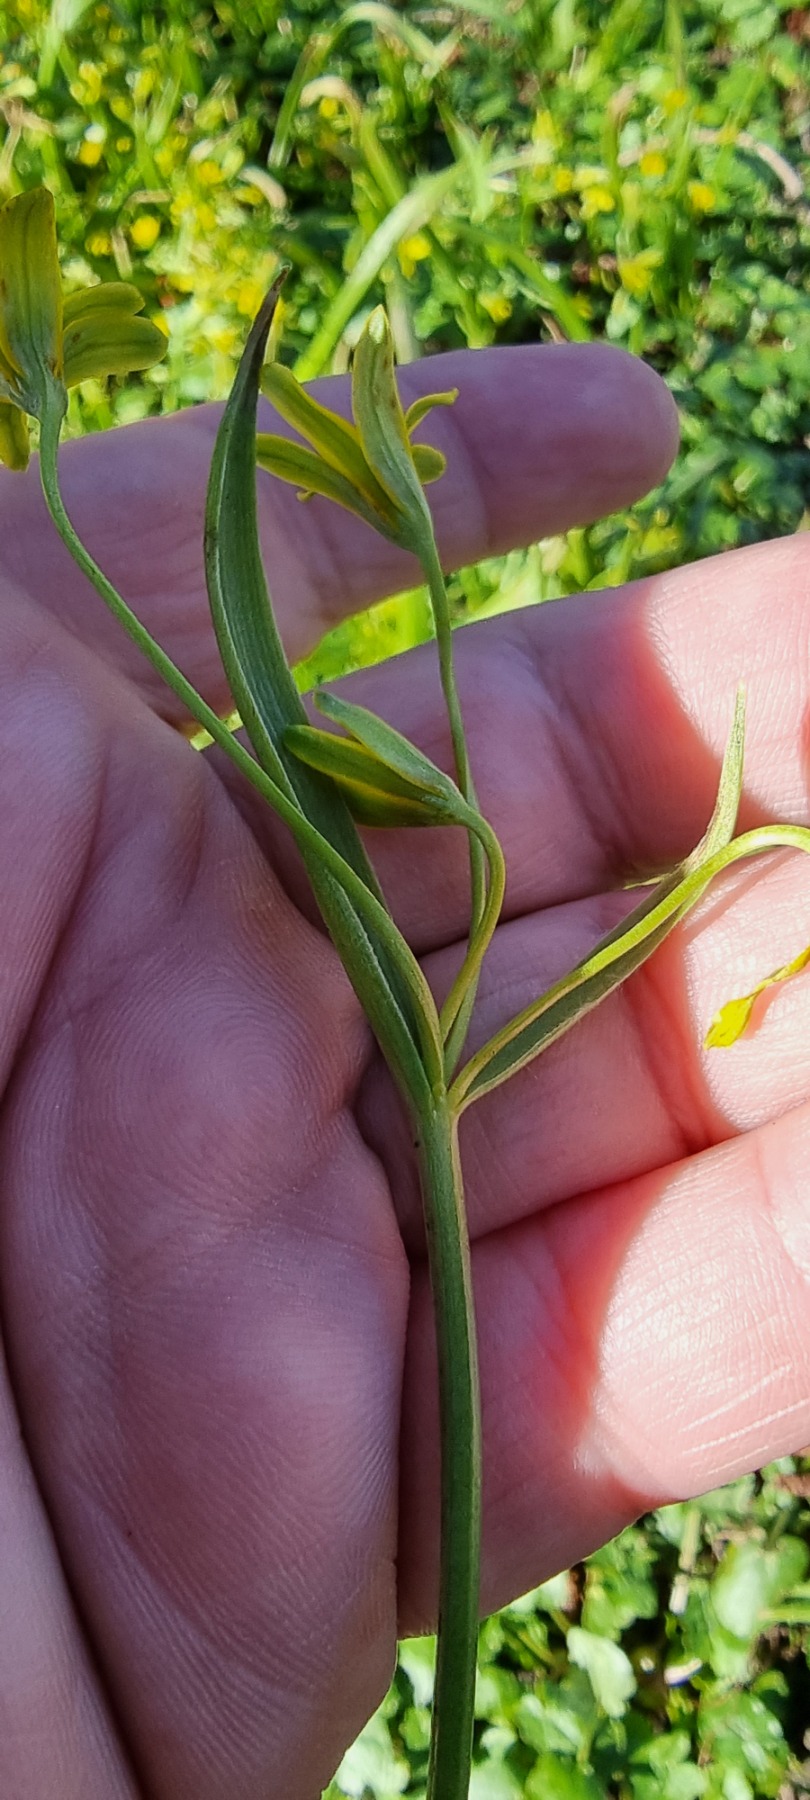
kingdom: Plantae
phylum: Tracheophyta
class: Liliopsida
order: Liliales
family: Liliaceae
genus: Gagea
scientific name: Gagea lutea
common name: Almindelig guldstjerne
